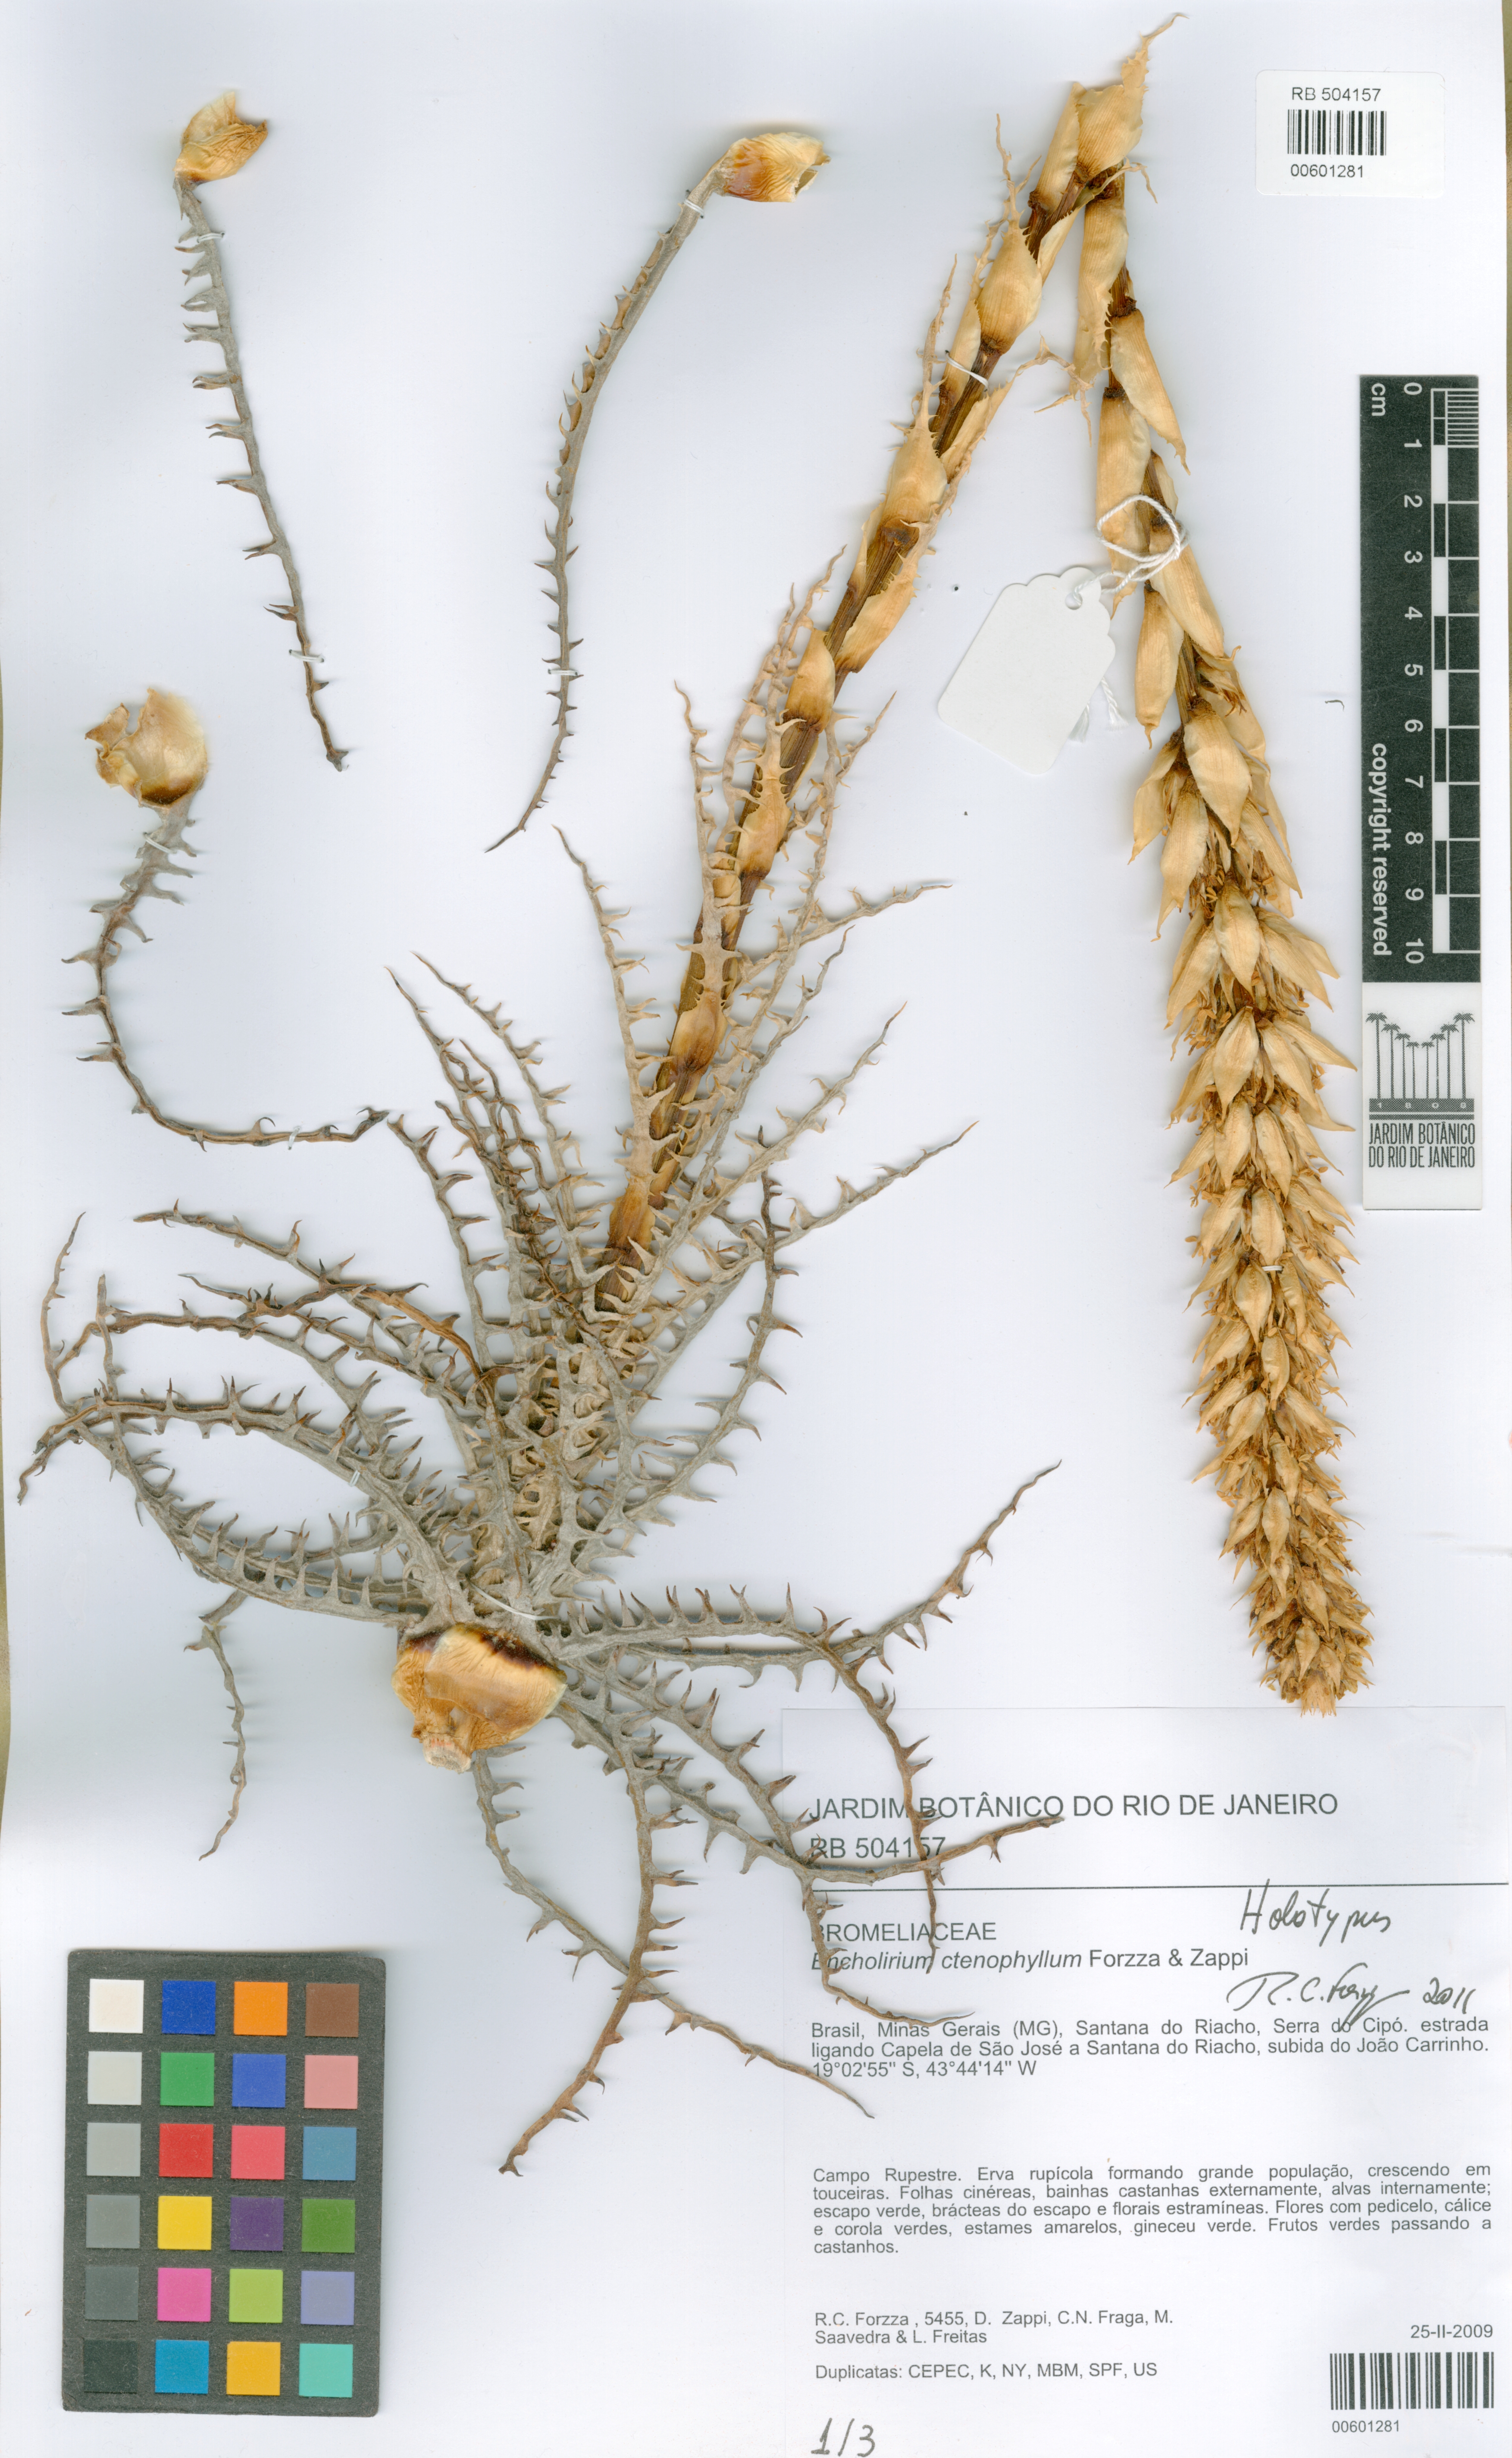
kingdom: Plantae
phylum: Tracheophyta
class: Liliopsida
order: Poales
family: Bromeliaceae
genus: Encholirium
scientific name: Encholirium ctenophyllum
